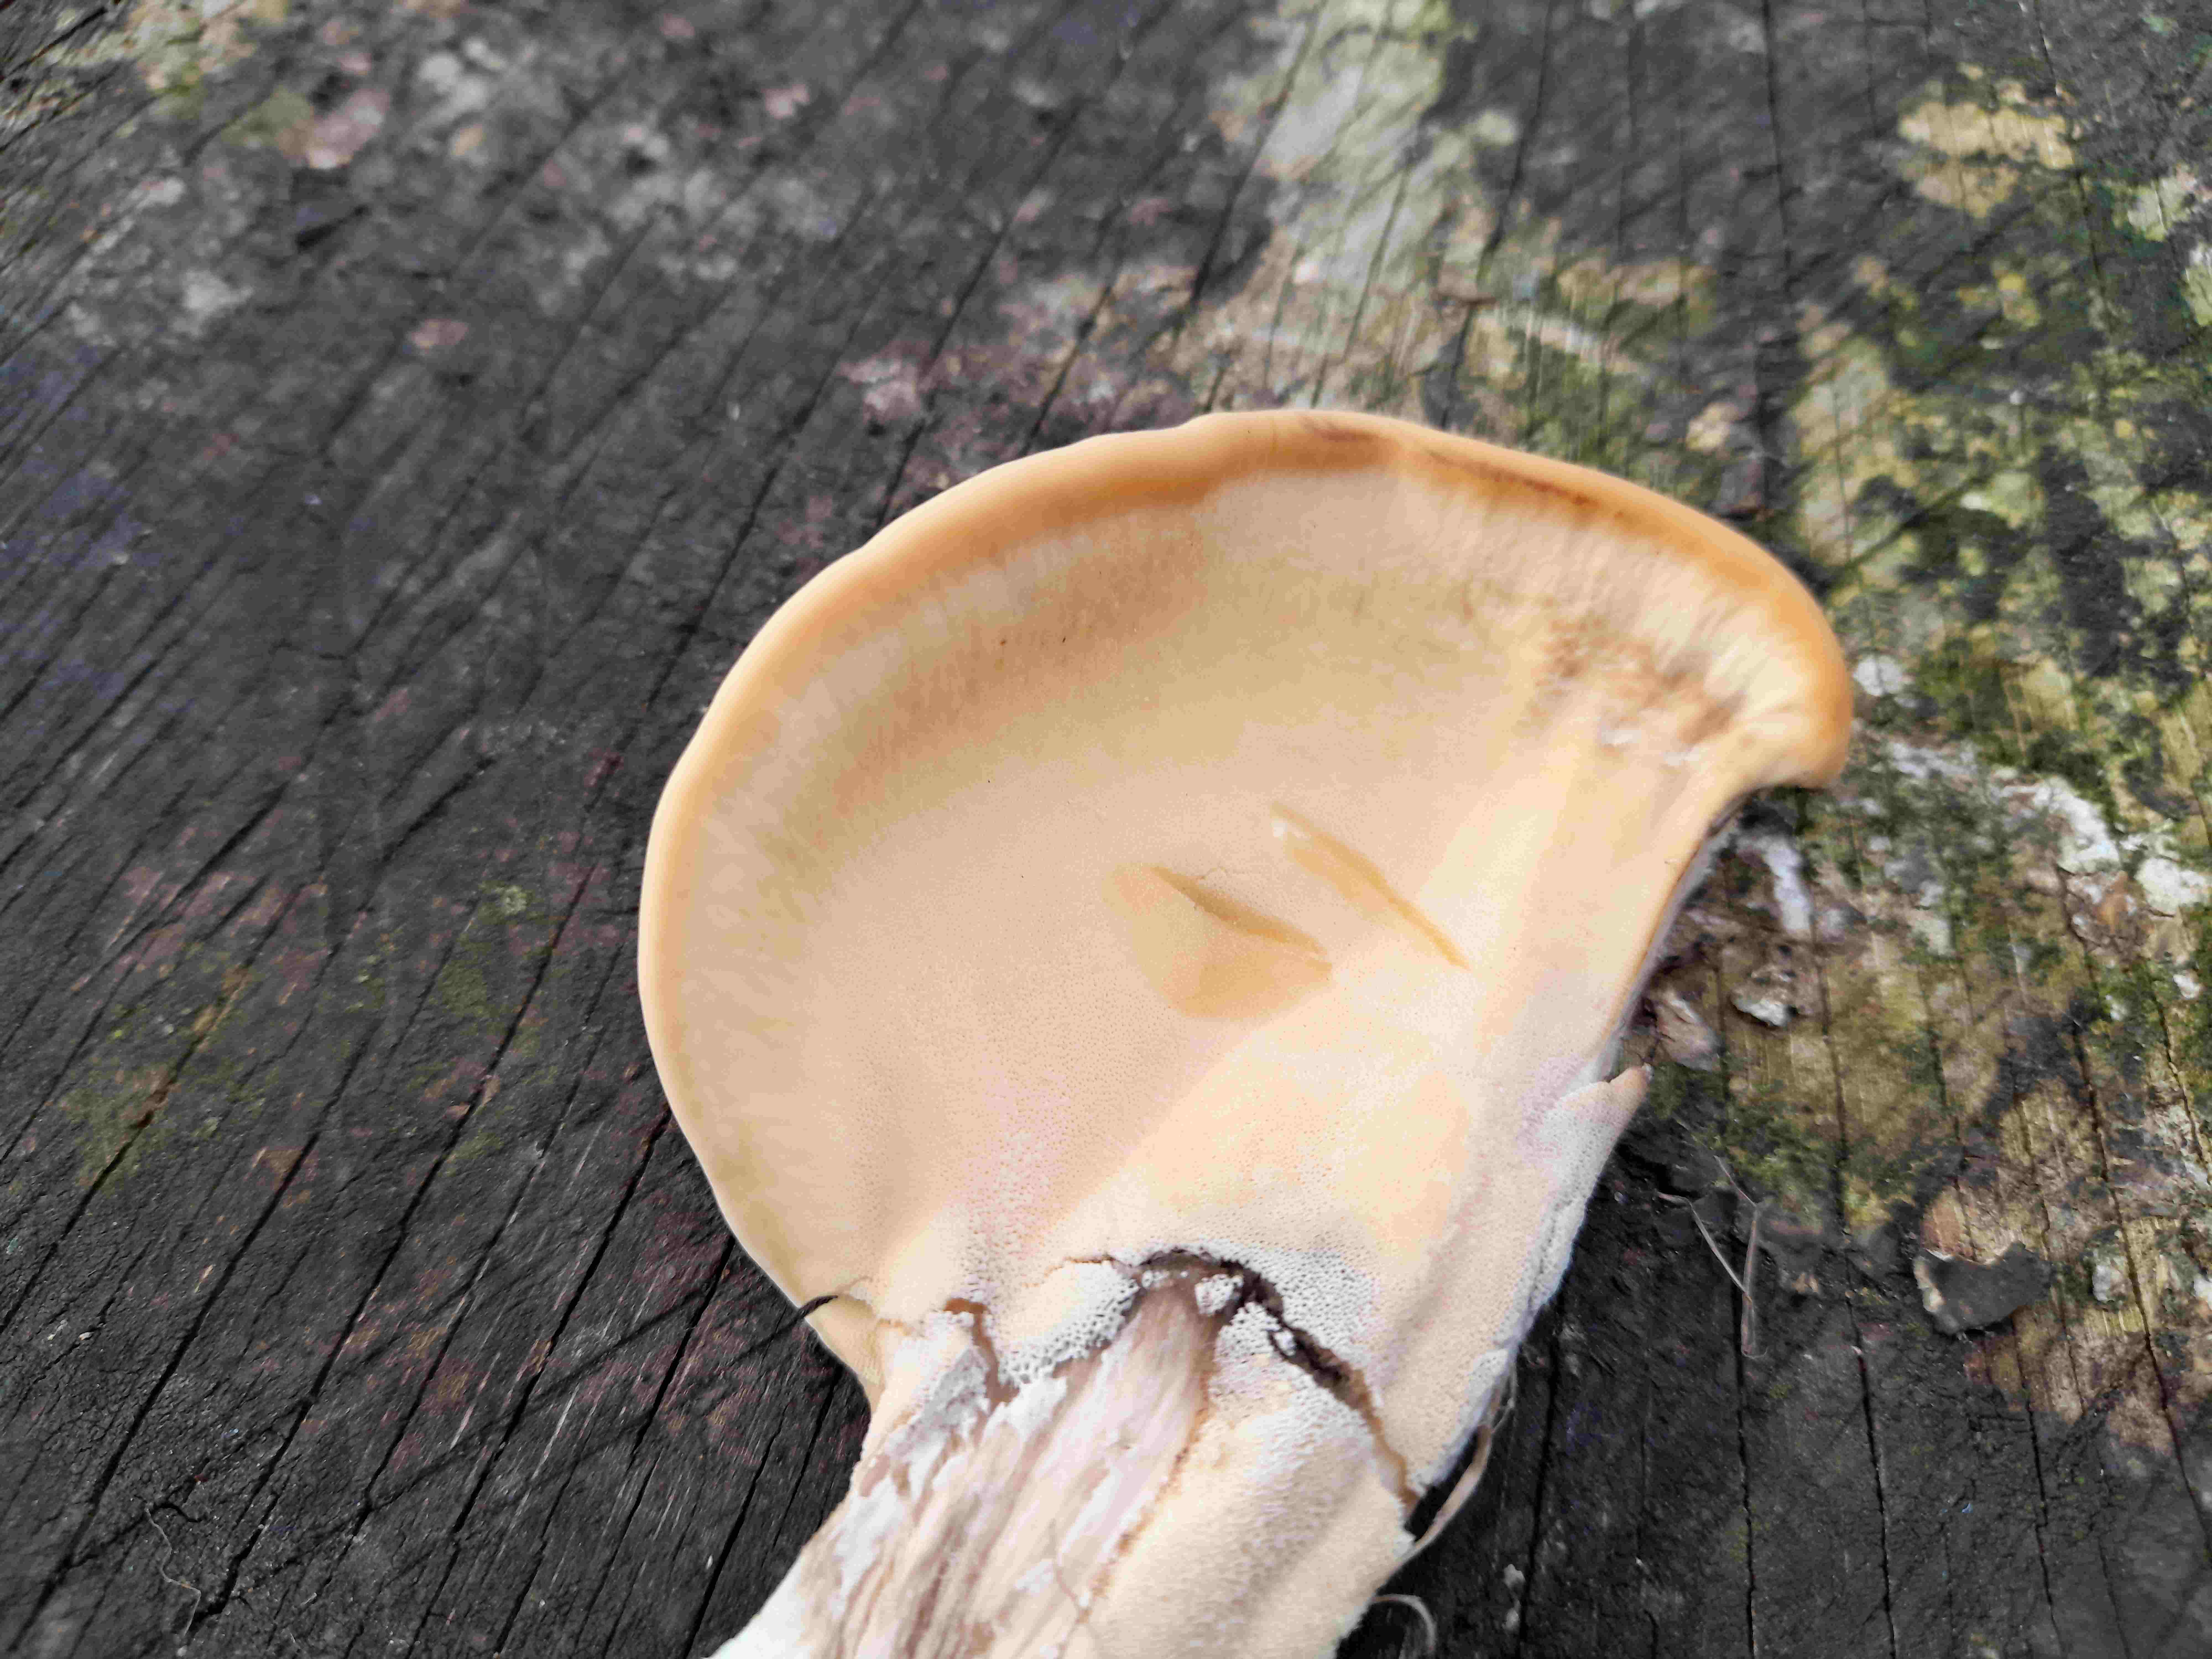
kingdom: Fungi
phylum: Basidiomycota
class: Agaricomycetes
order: Polyporales
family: Meripilaceae
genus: Meripilus
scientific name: Meripilus giganteus
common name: kæmpeporesvamp
